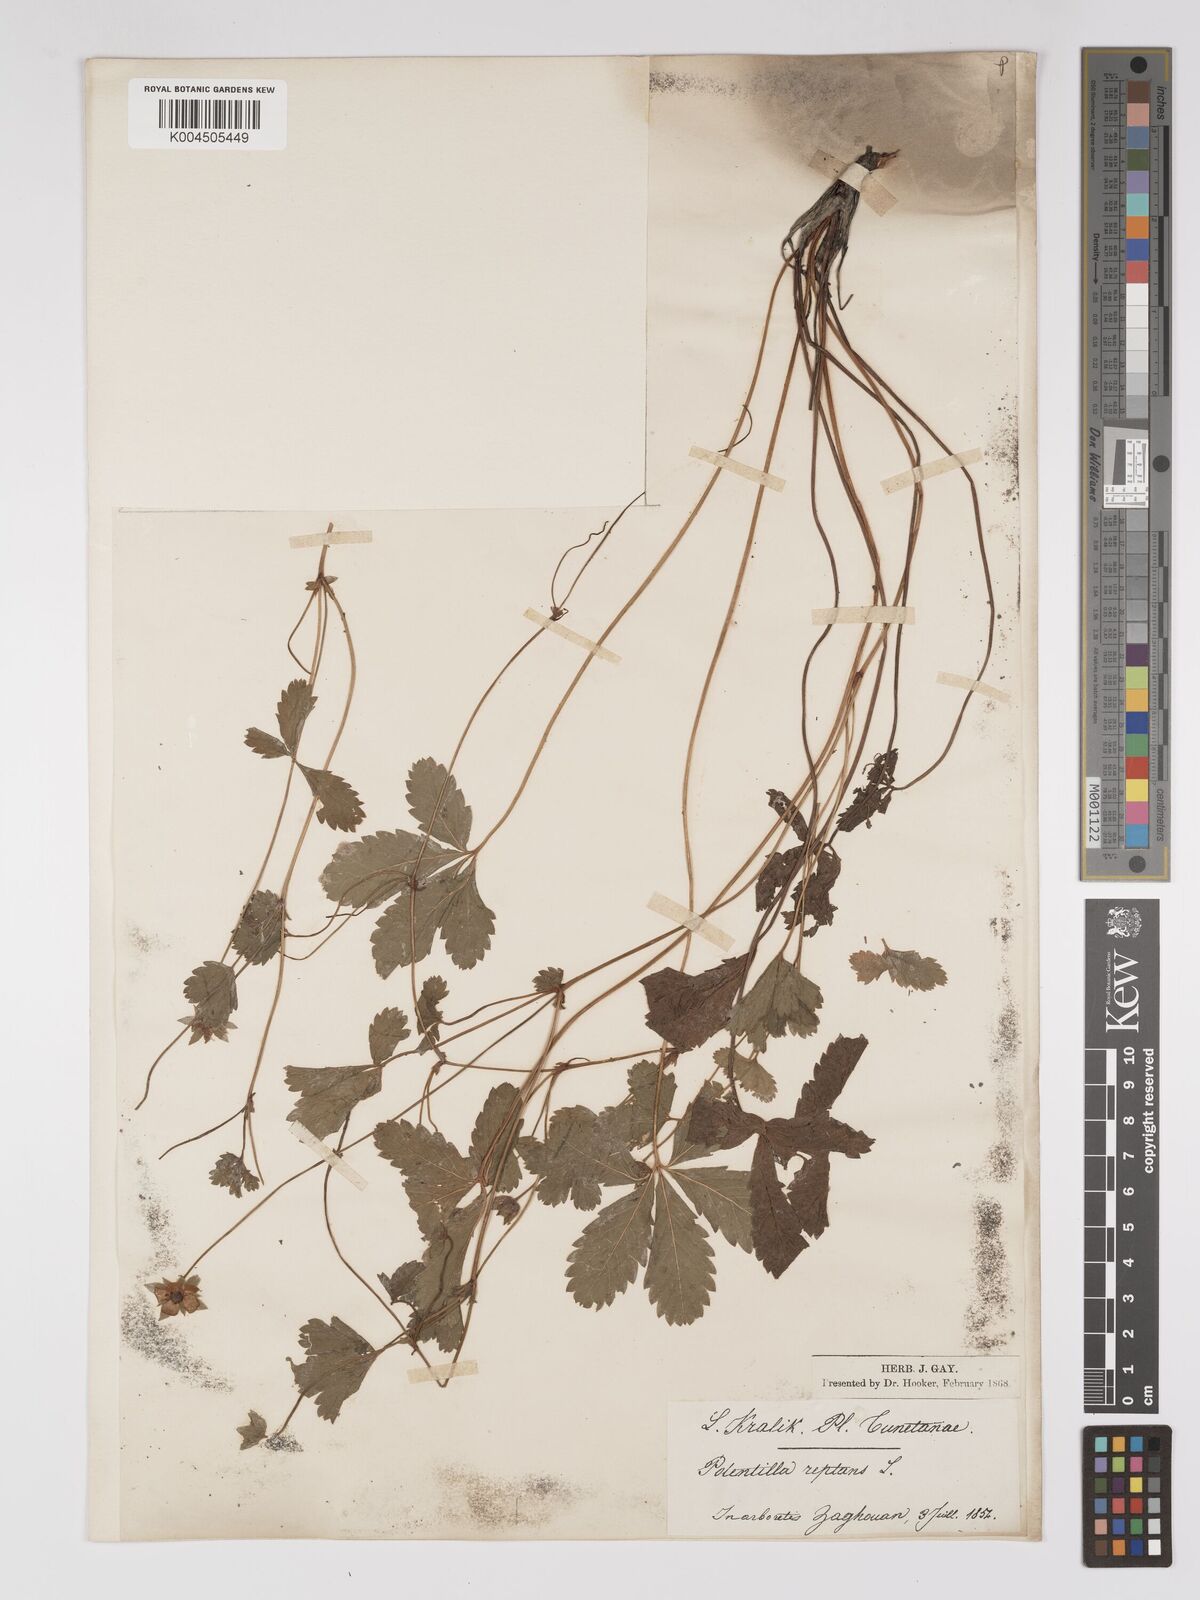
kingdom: Plantae
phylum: Tracheophyta
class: Magnoliopsida
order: Rosales
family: Rosaceae
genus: Potentilla
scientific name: Potentilla reptans
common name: Creeping cinquefoil
